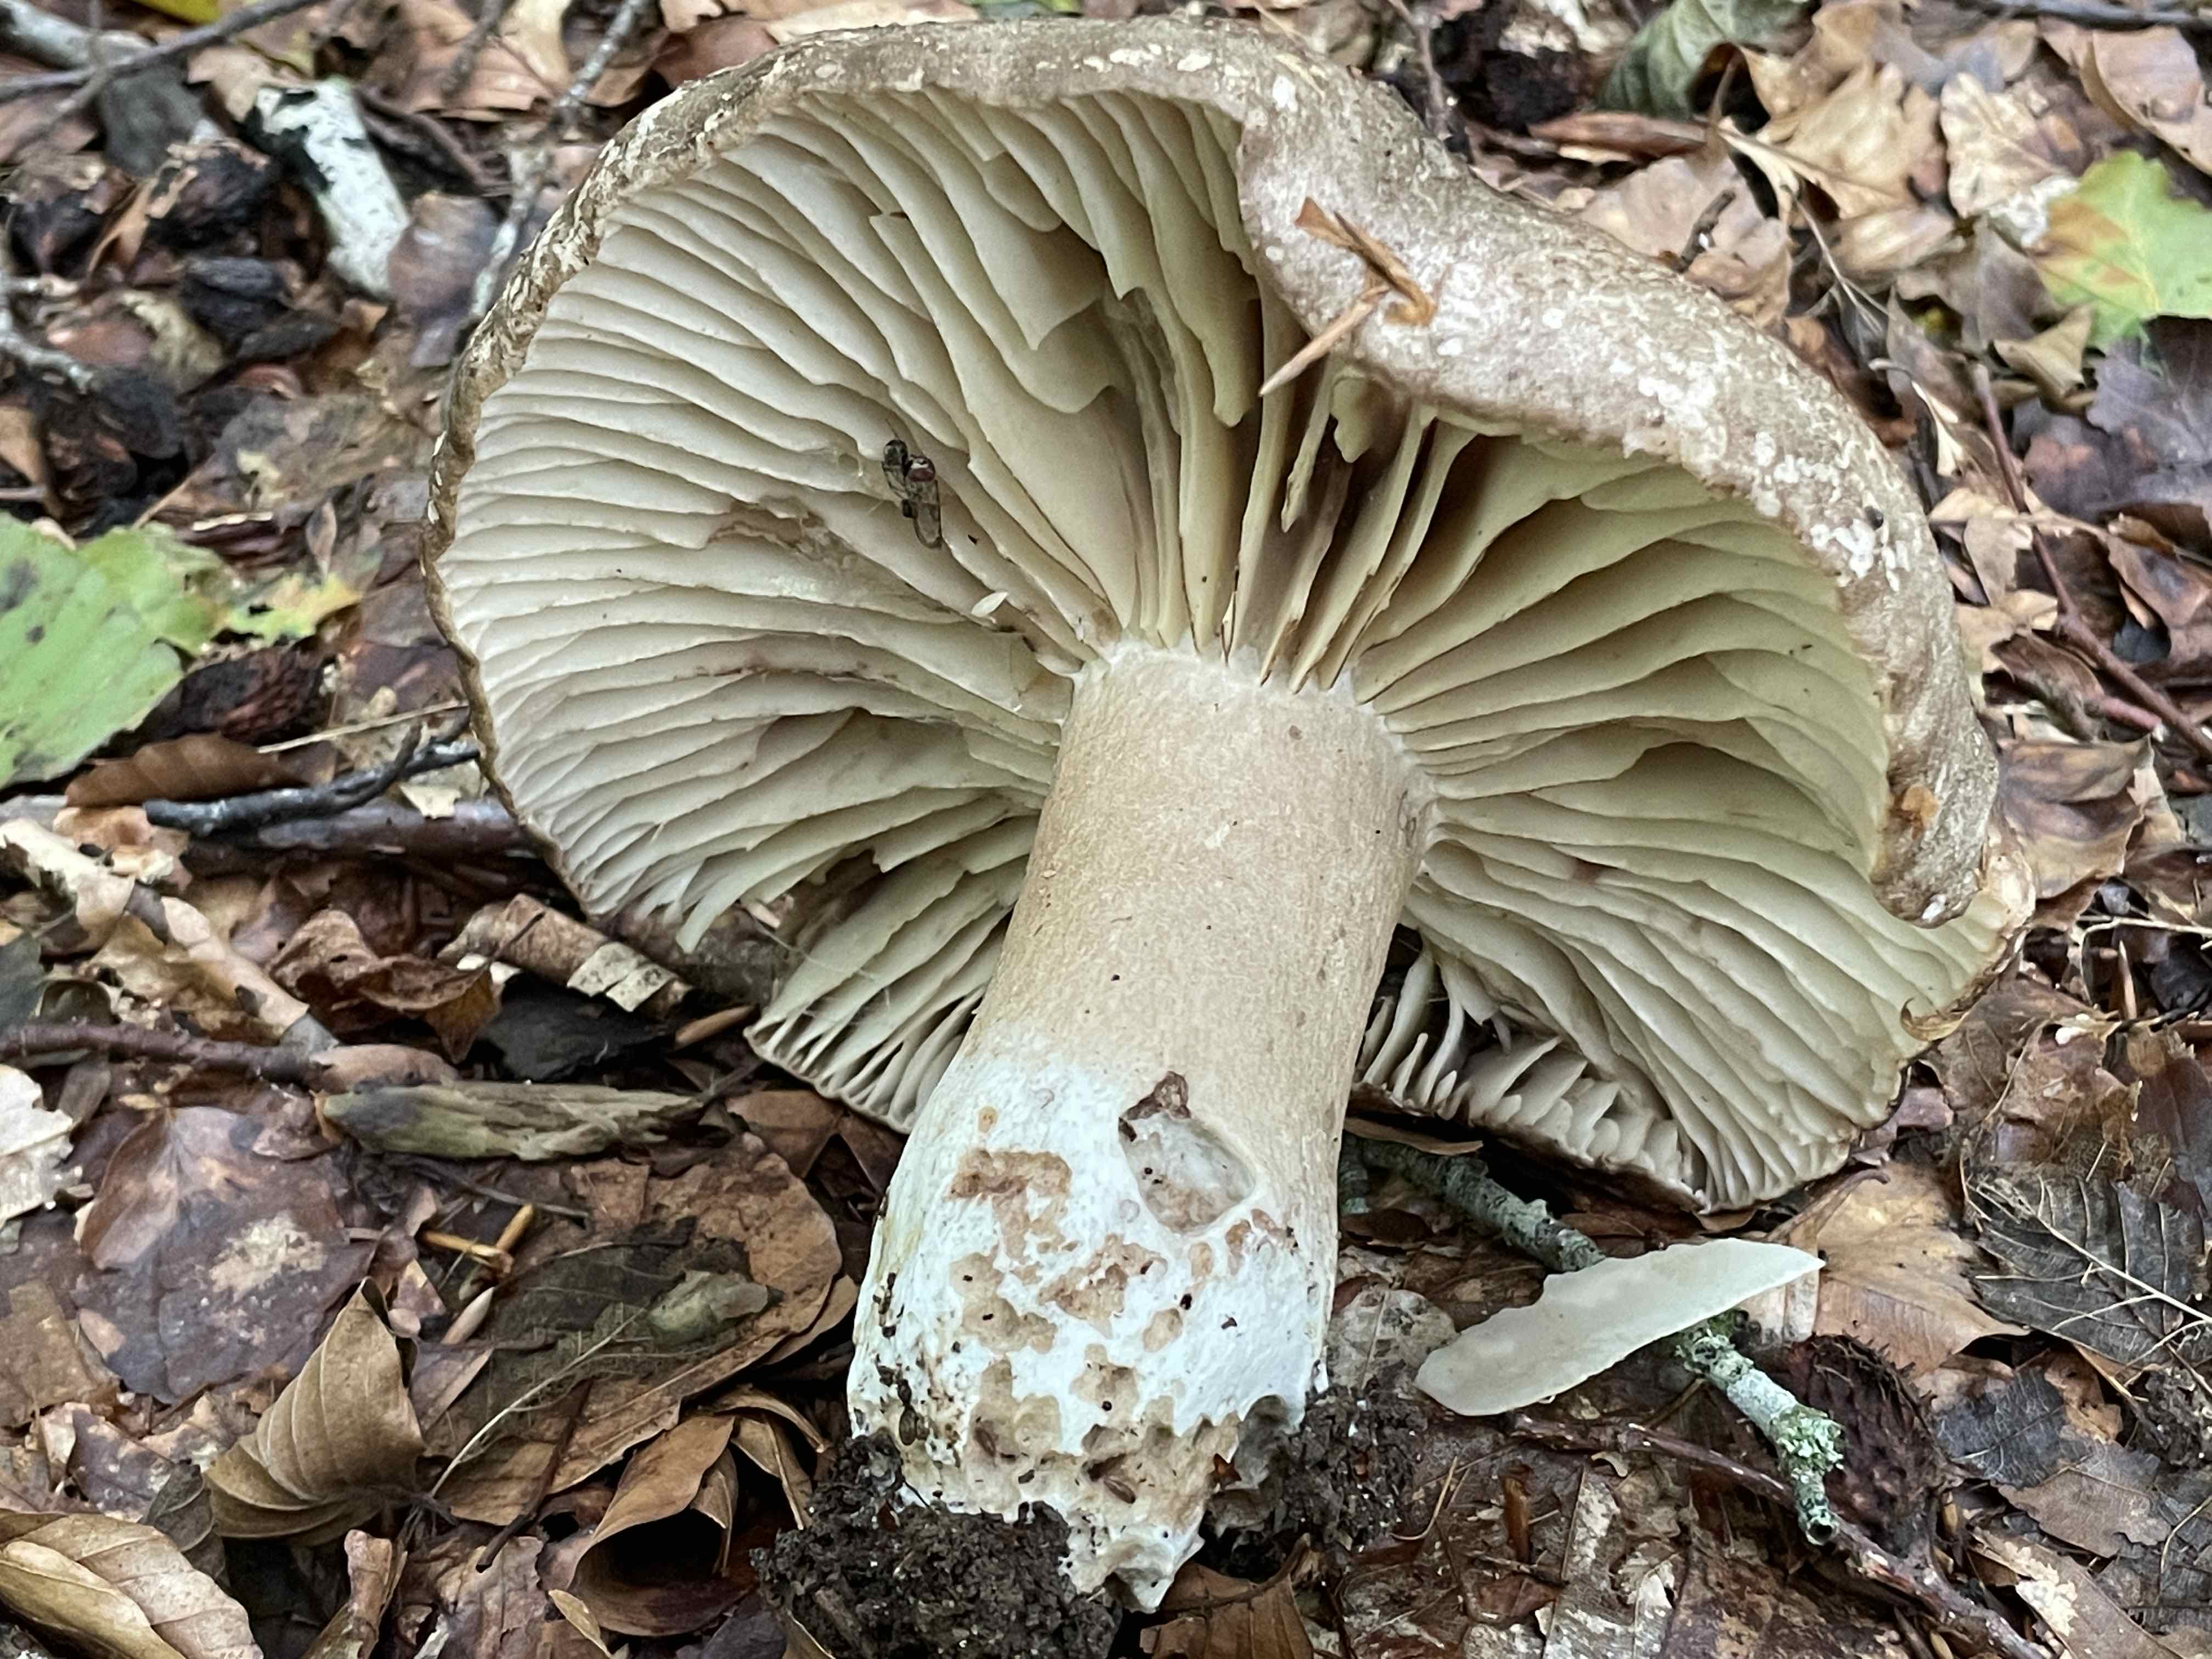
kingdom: Fungi
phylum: Basidiomycota
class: Agaricomycetes
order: Russulales
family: Russulaceae
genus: Russula
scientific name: Russula adusta
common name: sværtende skørhat
